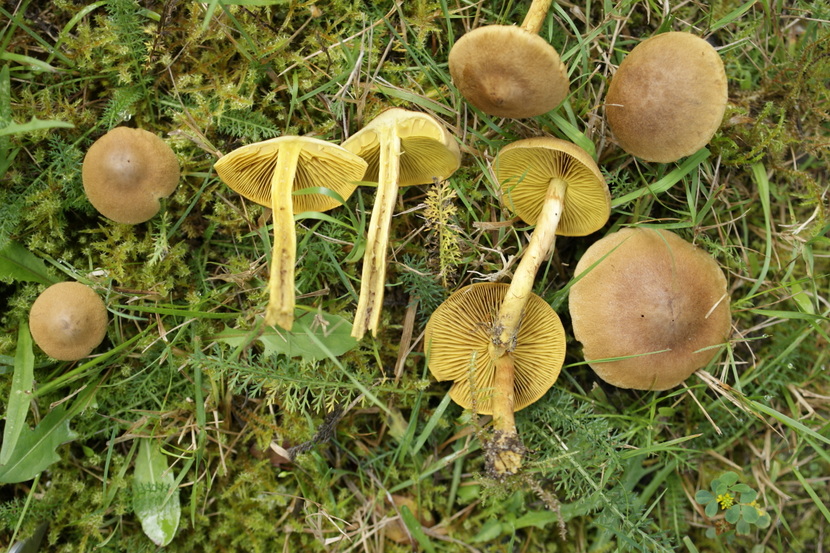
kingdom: Fungi
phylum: Basidiomycota
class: Agaricomycetes
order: Agaricales
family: Cortinariaceae
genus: Cortinarius
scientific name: Cortinarius
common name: gulbladet slørhat
